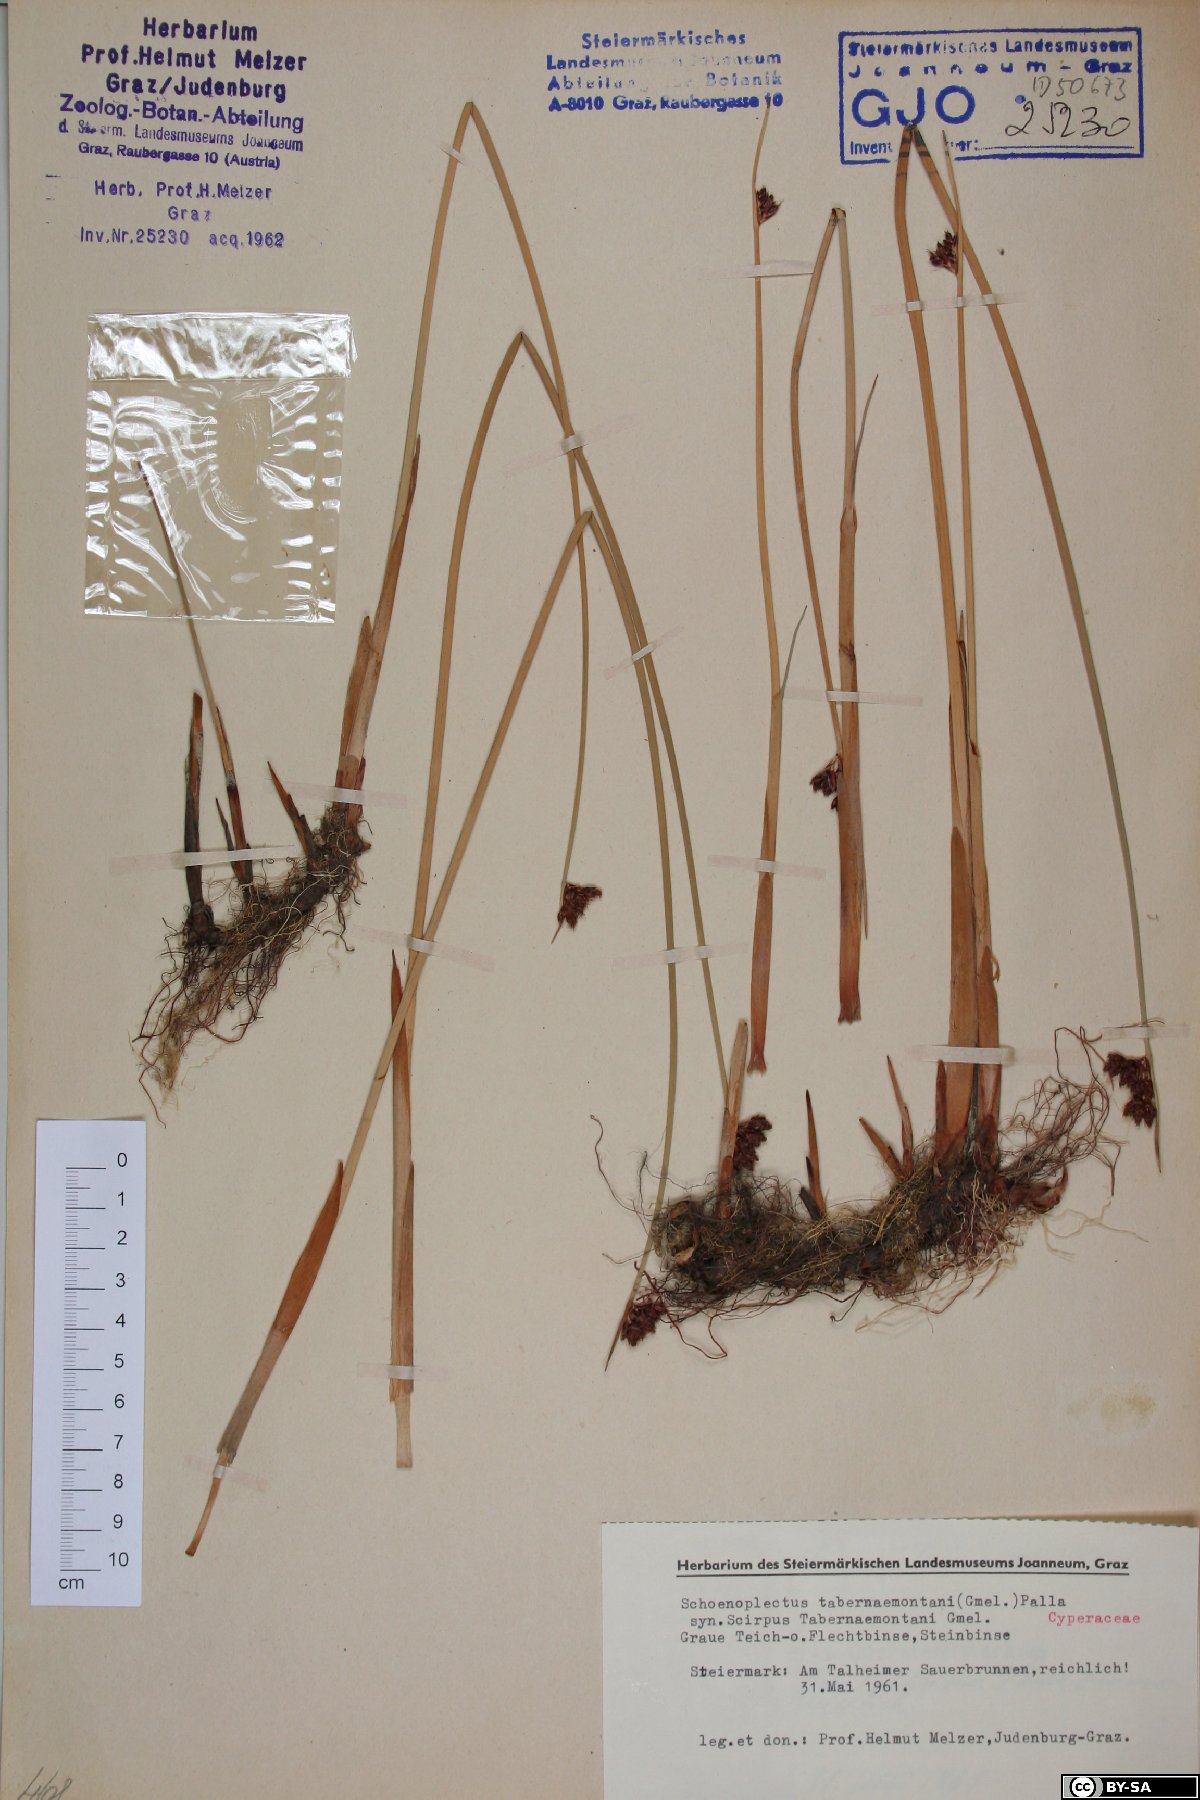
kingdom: Plantae
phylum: Tracheophyta
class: Liliopsida
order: Poales
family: Cyperaceae
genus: Schoenoplectus
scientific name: Schoenoplectus tabernaemontani
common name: Grey club-rush
